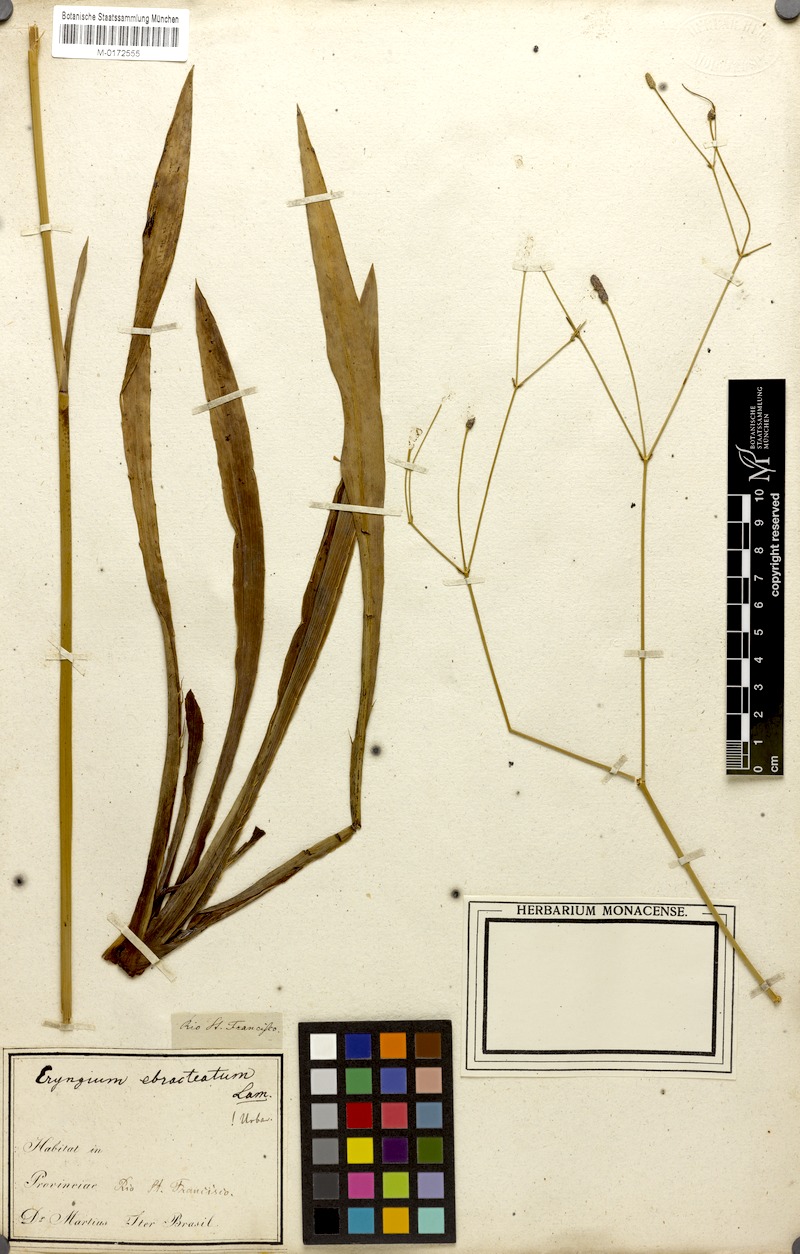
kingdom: Plantae
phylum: Tracheophyta
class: Magnoliopsida
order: Apiales
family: Apiaceae
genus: Eryngium
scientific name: Eryngium ebracteatum
